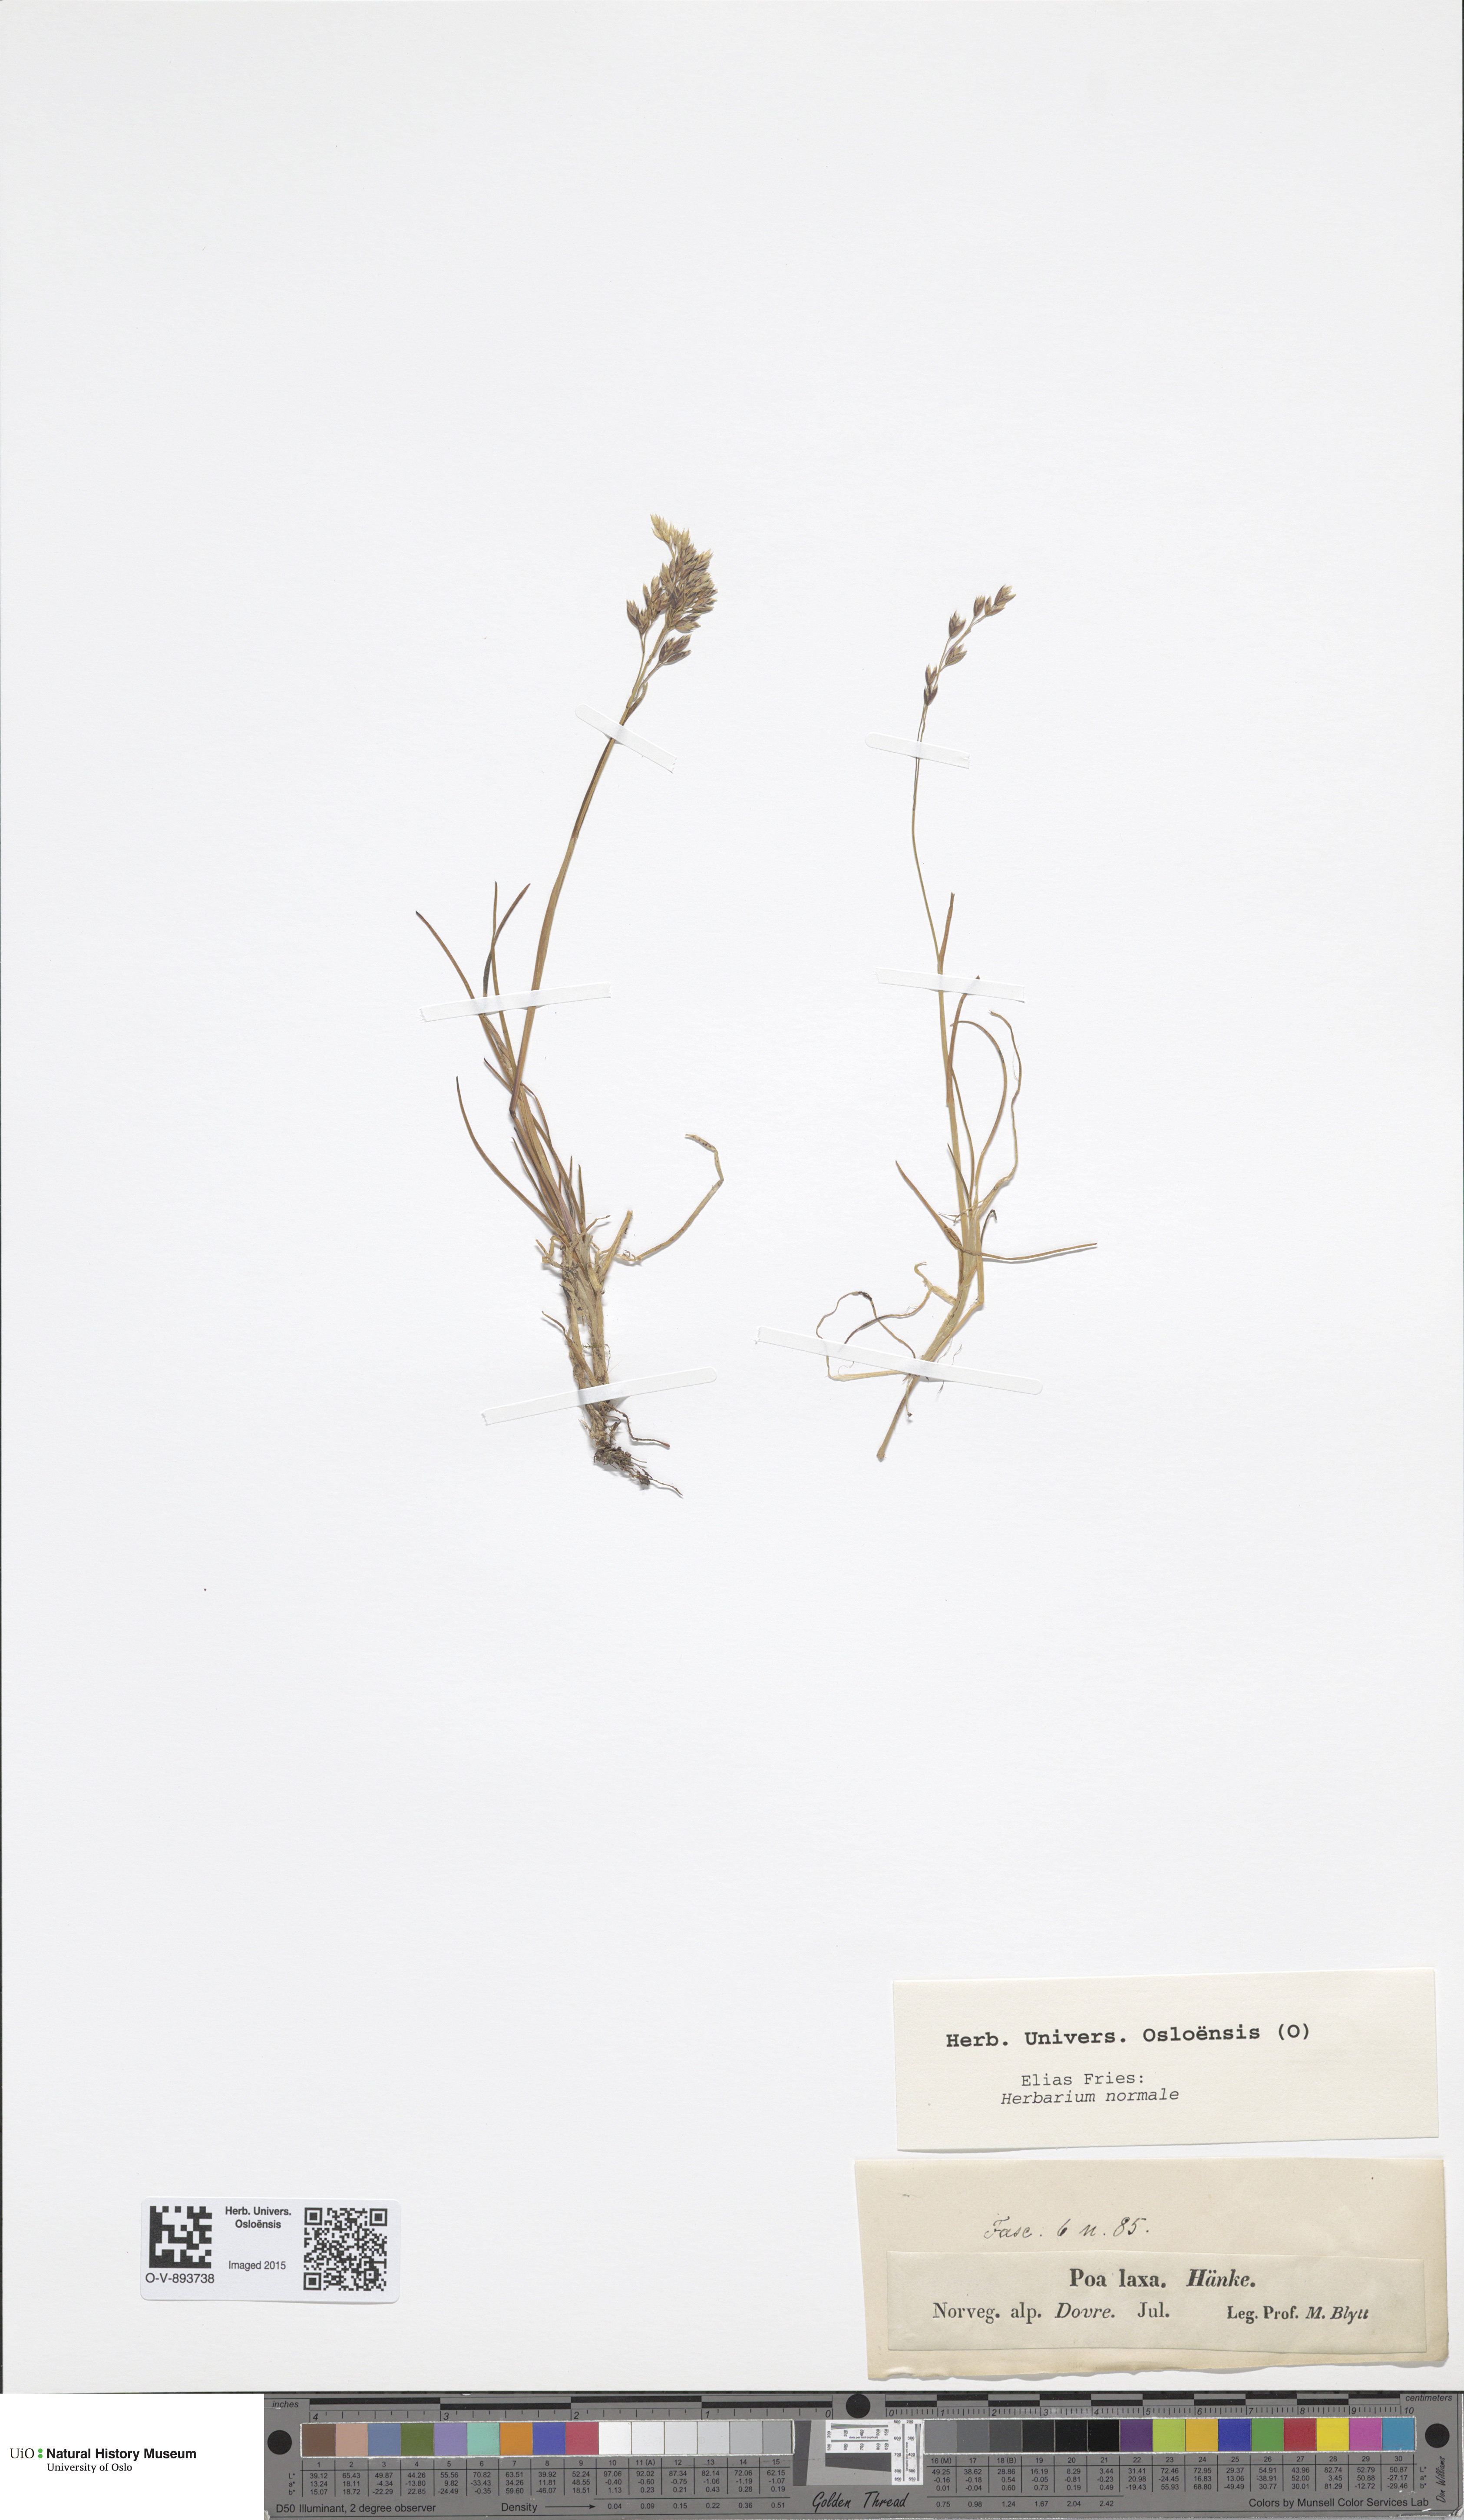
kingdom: Plantae
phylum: Tracheophyta
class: Liliopsida
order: Poales
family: Poaceae
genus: Poa
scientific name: Poa flexuosa
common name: Wavy meadow-grass
